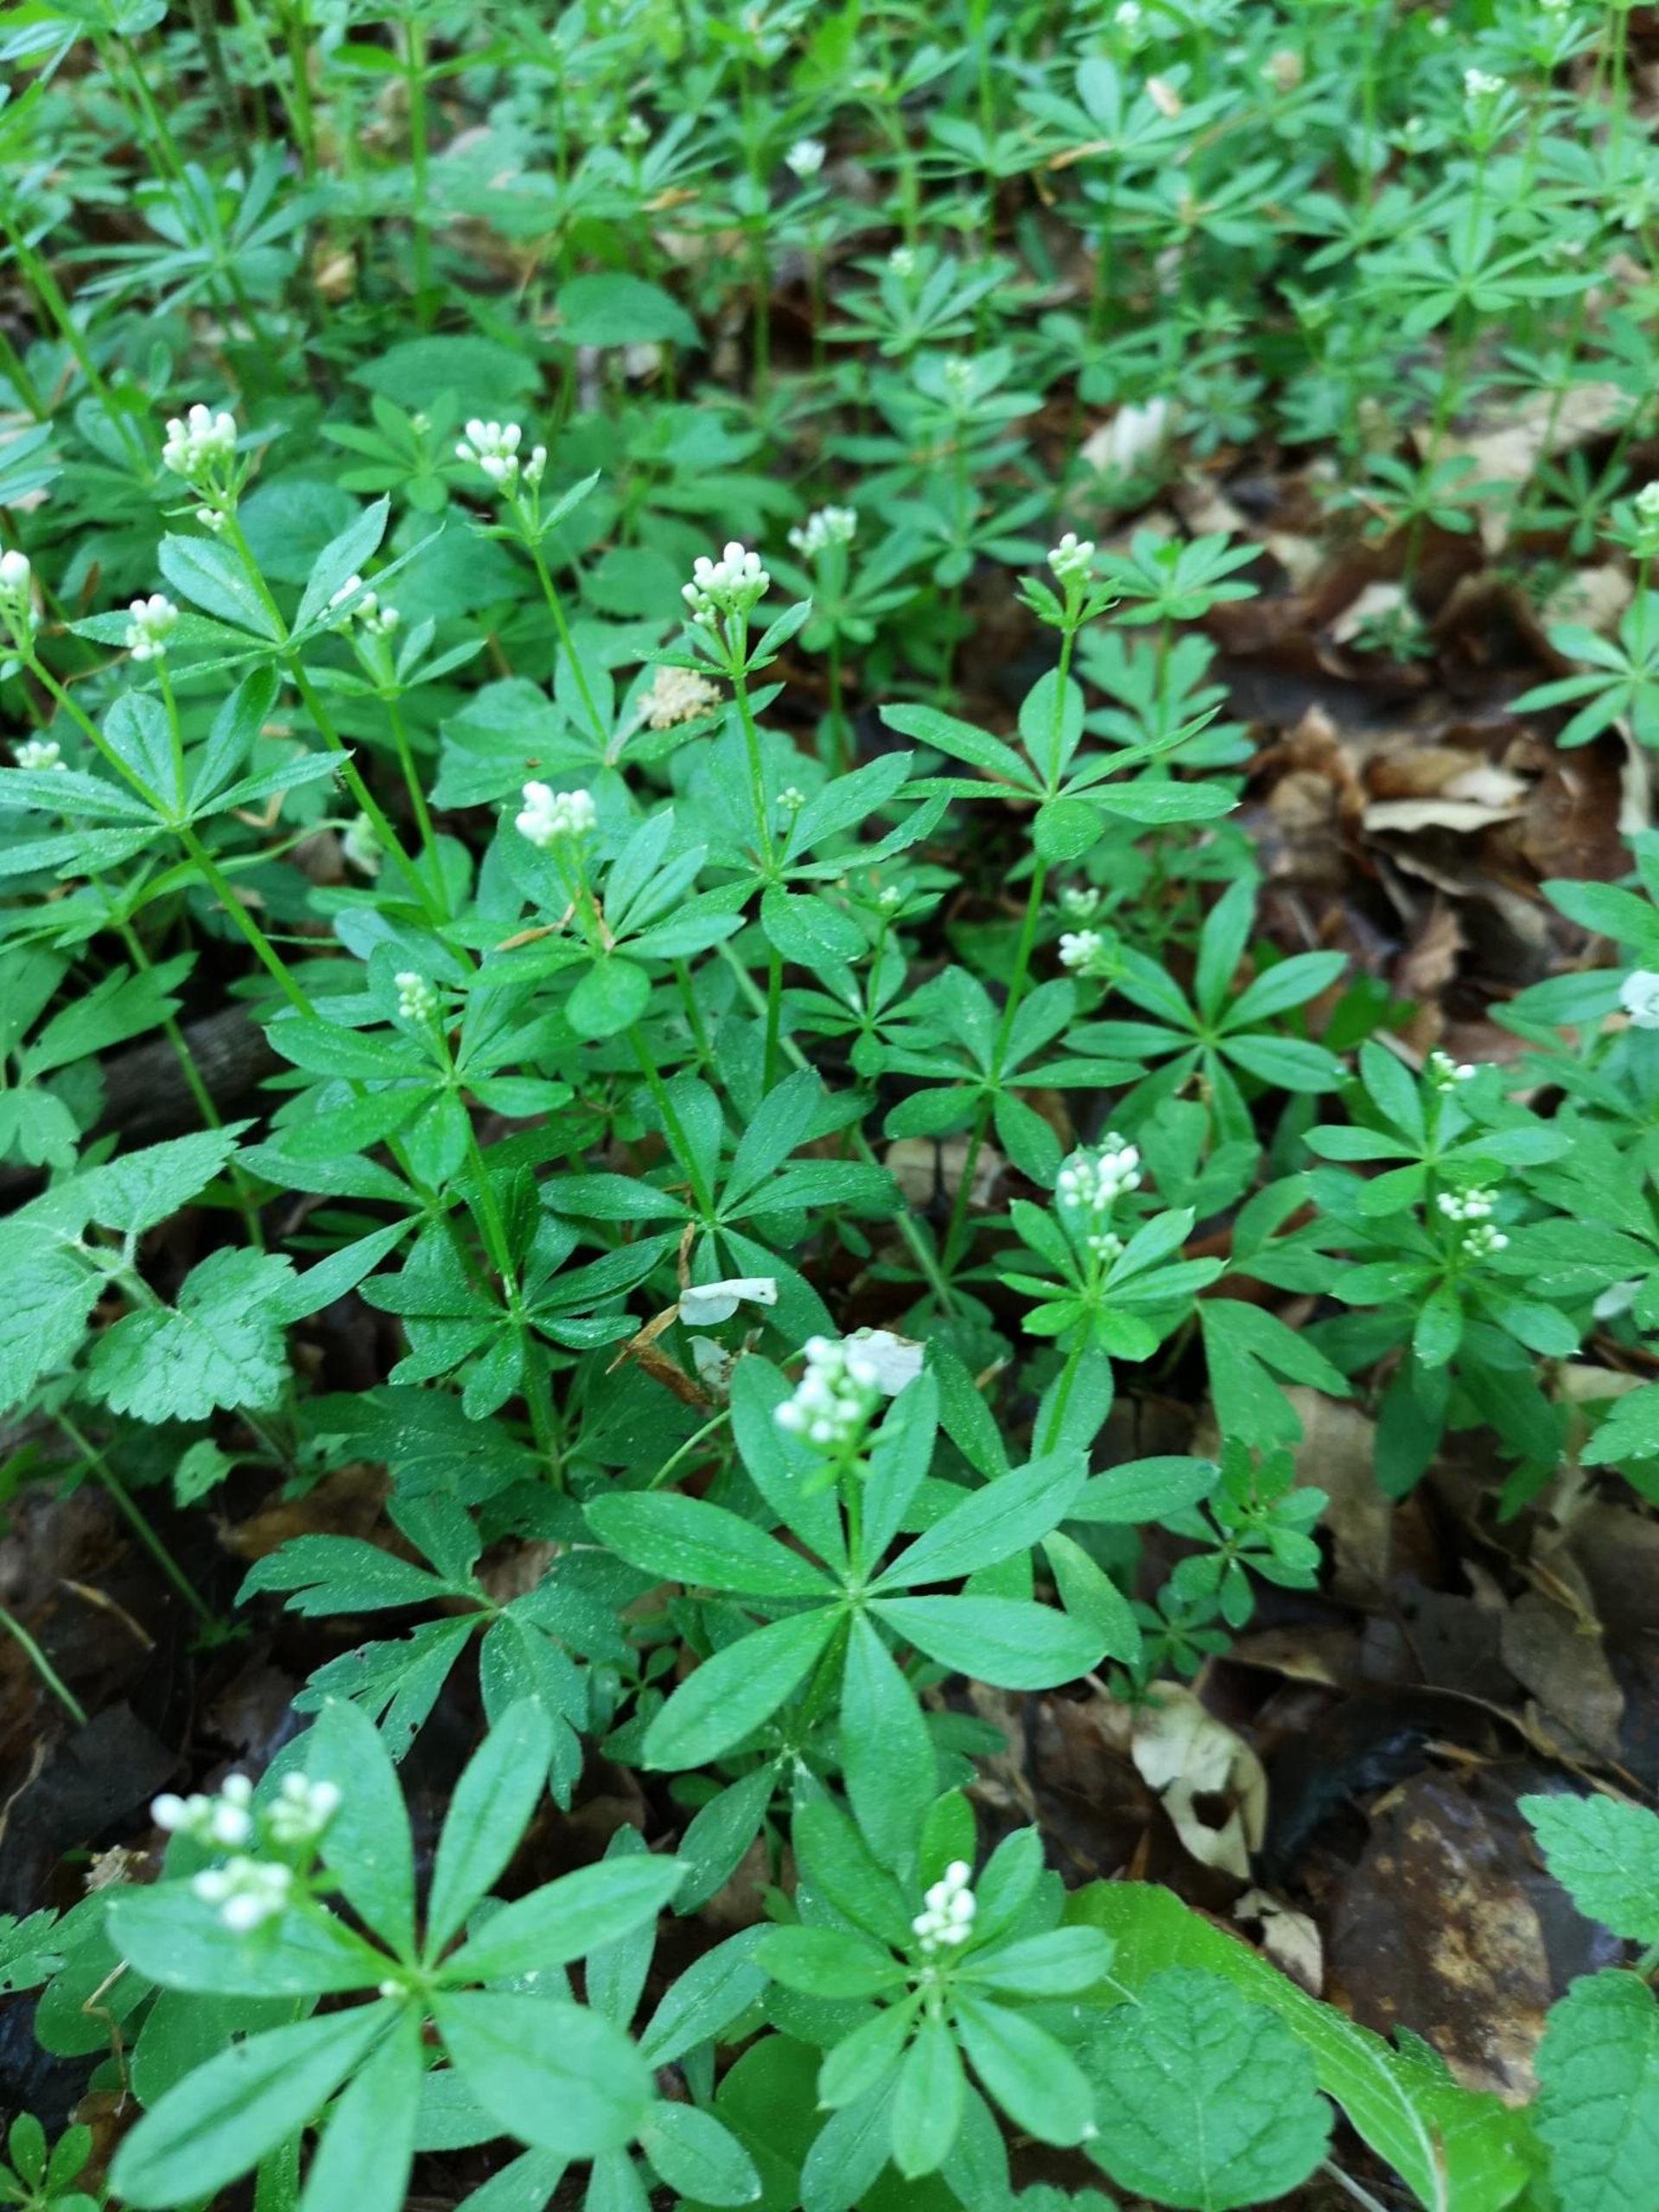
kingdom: Plantae
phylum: Tracheophyta
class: Magnoliopsida
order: Gentianales
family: Rubiaceae
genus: Galium
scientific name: Galium odoratum
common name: Skovmærke
